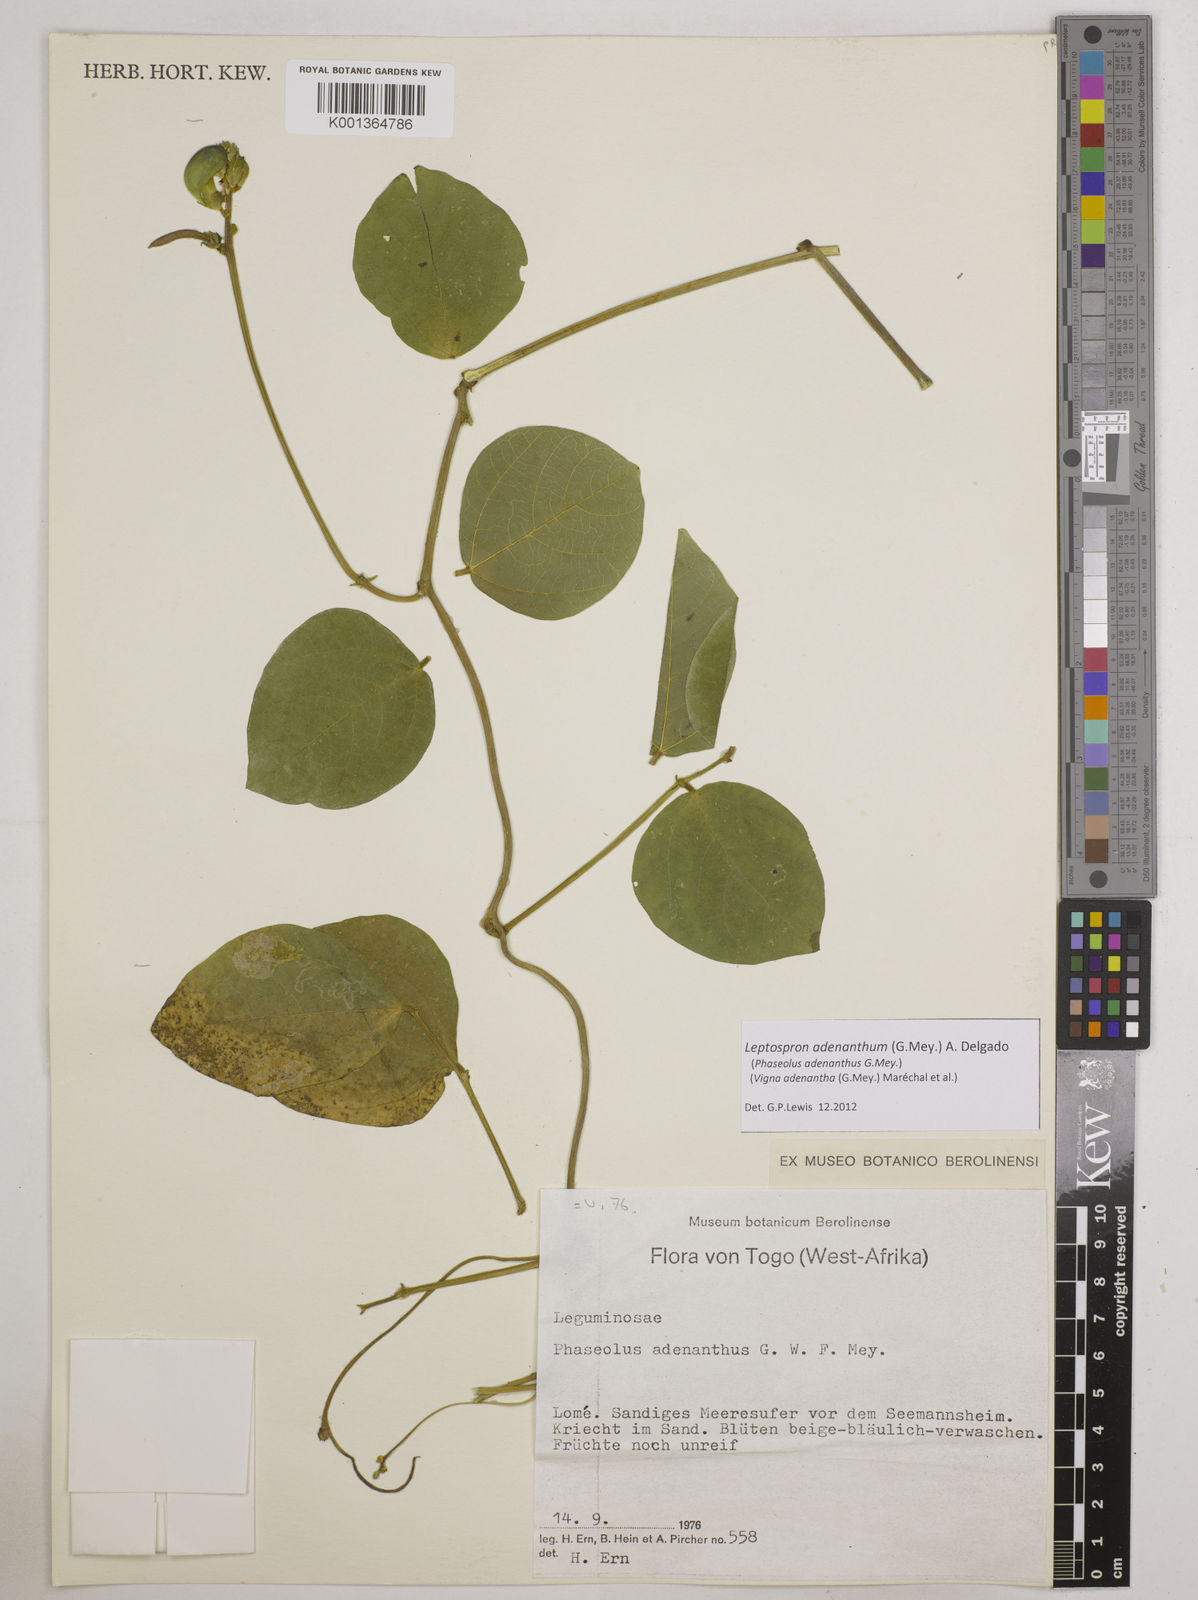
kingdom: Plantae
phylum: Tracheophyta
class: Magnoliopsida
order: Fabales
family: Fabaceae
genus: Leptospron
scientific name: Leptospron adenanthum
